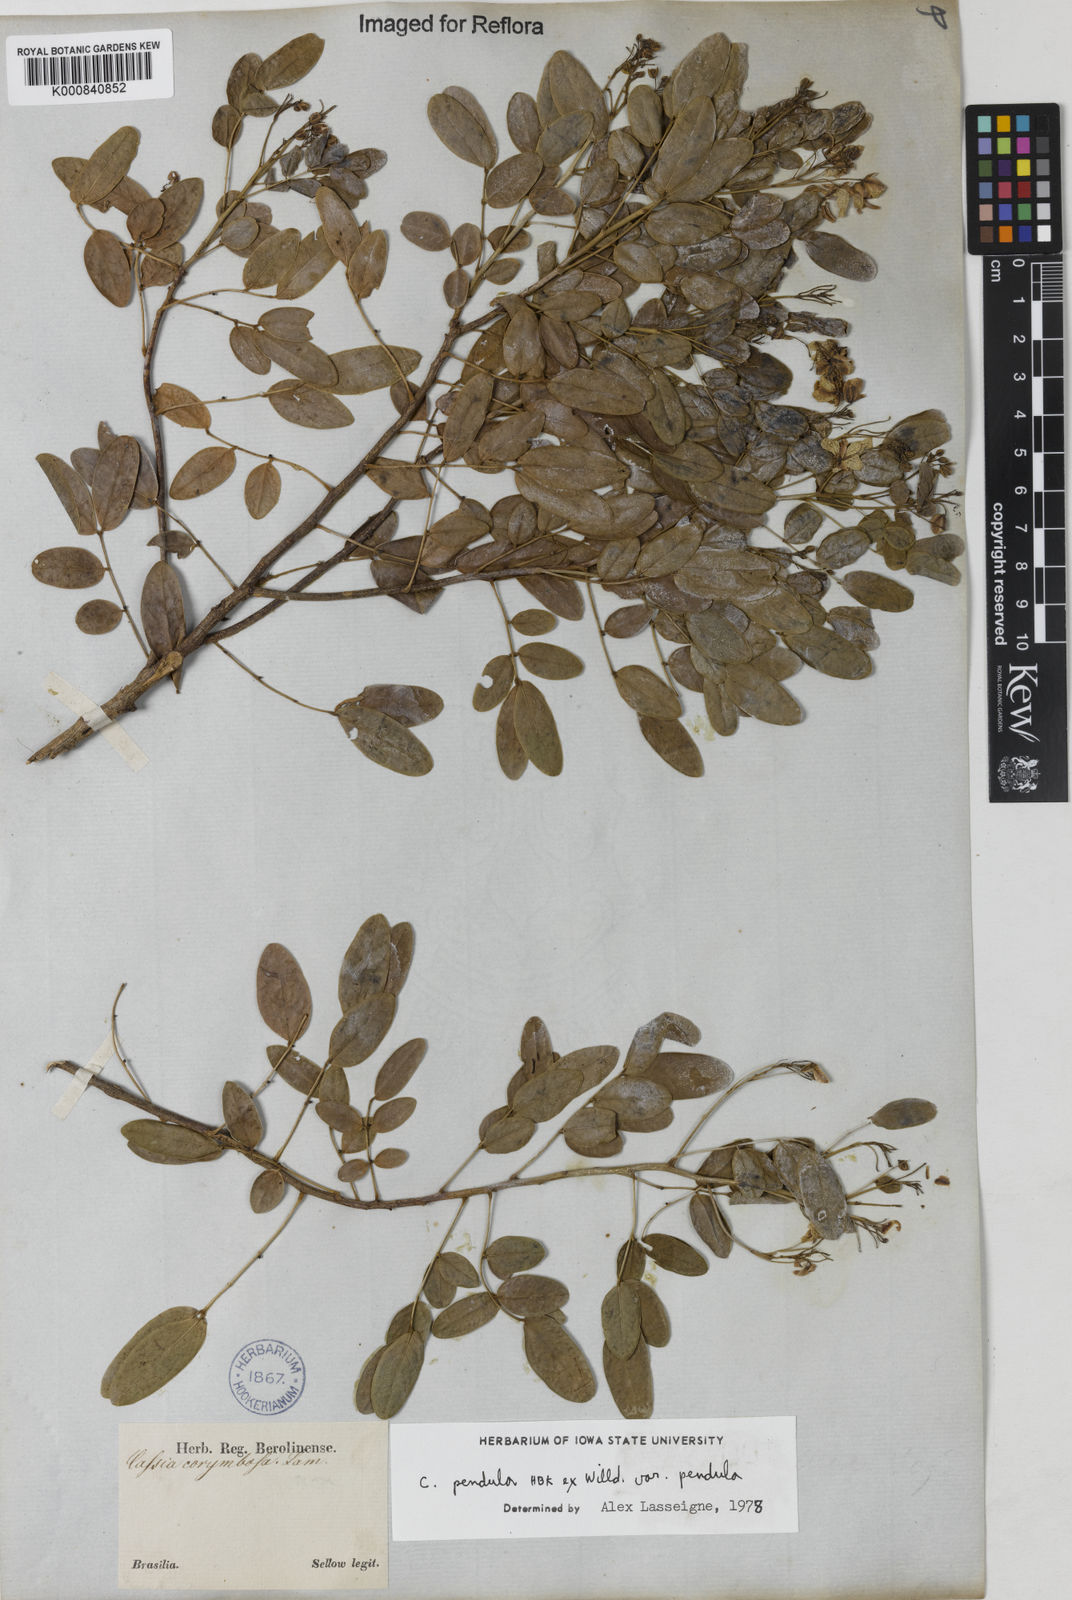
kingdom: Plantae
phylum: Tracheophyta
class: Magnoliopsida
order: Fabales
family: Fabaceae
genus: Senna
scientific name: Senna pendula
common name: Easter cassia
